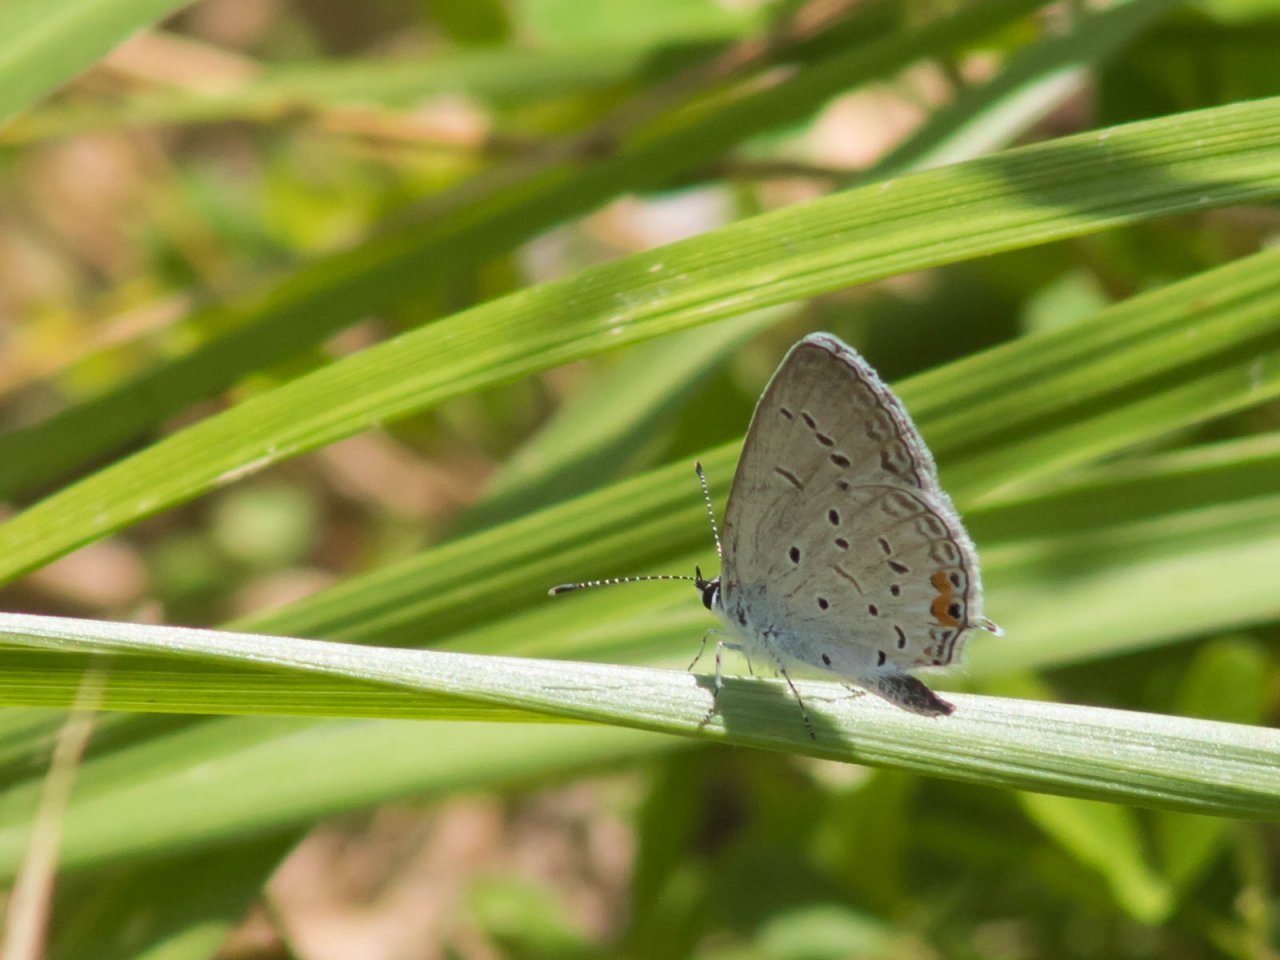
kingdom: Animalia
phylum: Arthropoda
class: Insecta
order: Lepidoptera
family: Lycaenidae
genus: Elkalyce
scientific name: Elkalyce comyntas
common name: Eastern Tailed-Blue
